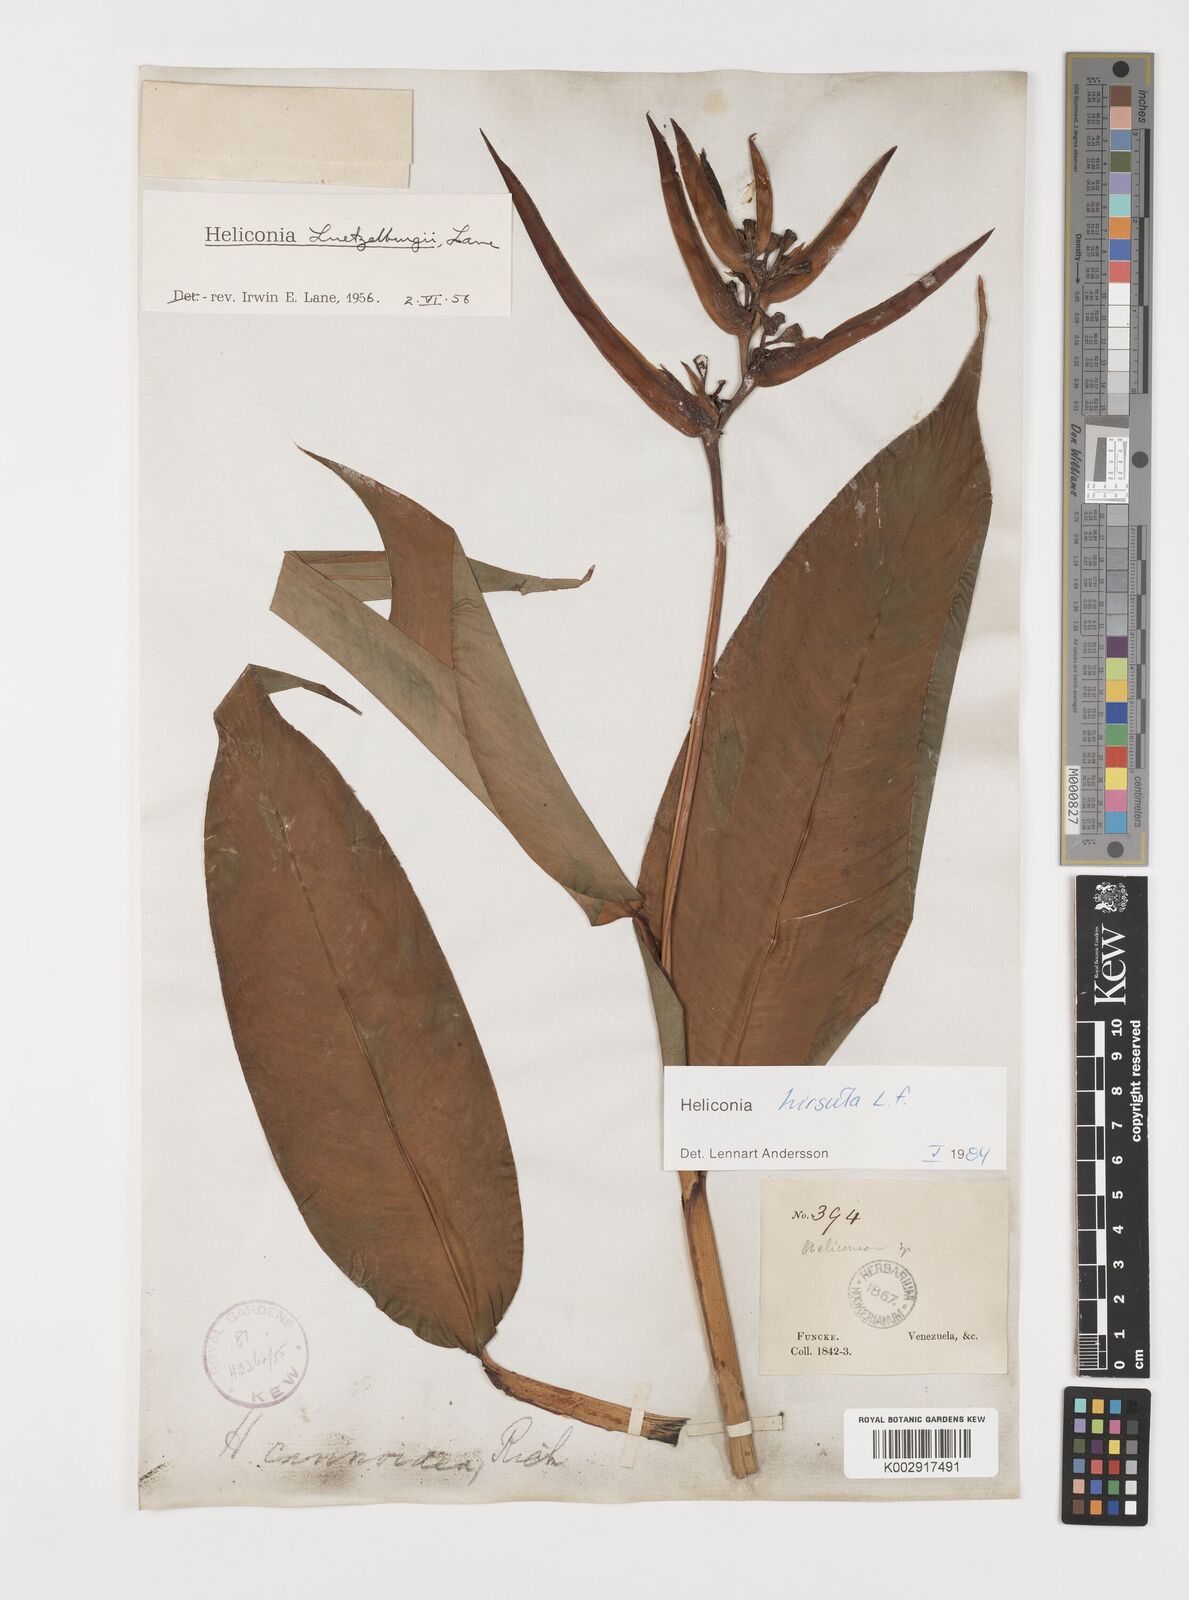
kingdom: Plantae
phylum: Tracheophyta
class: Liliopsida
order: Zingiberales
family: Heliconiaceae
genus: Heliconia
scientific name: Heliconia hirsuta
